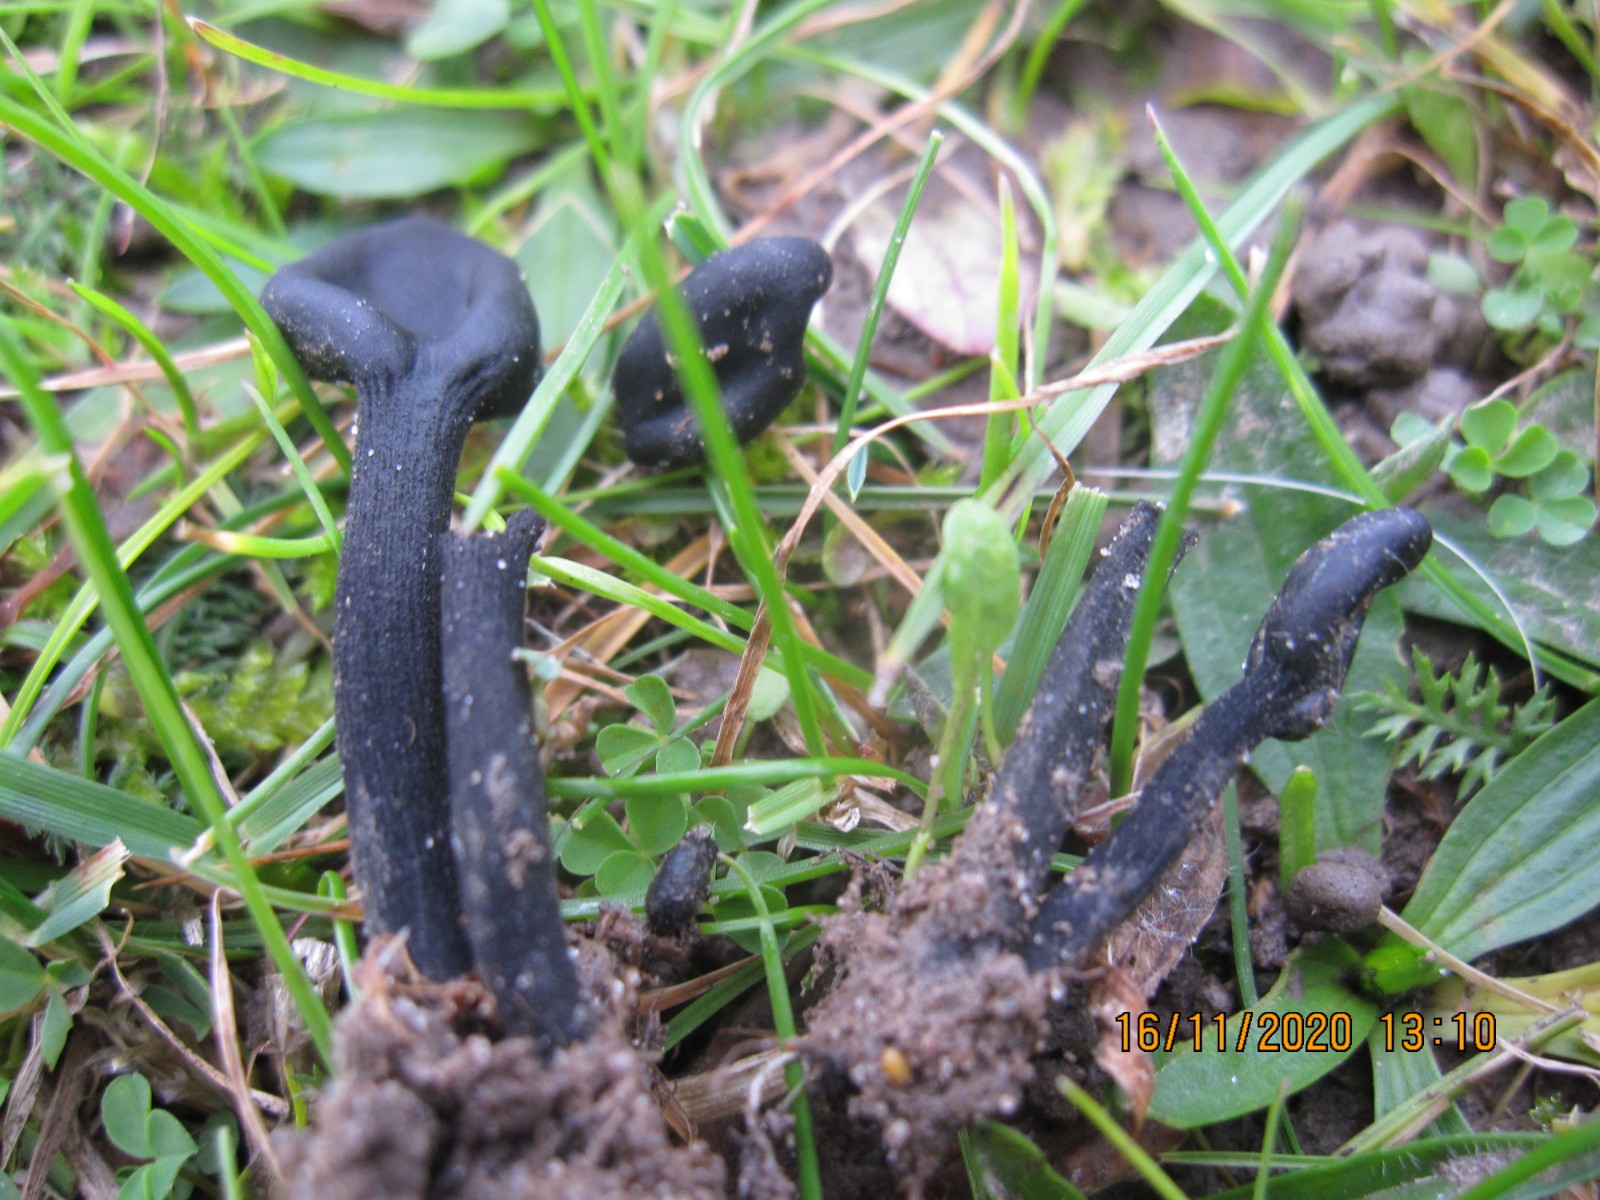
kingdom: Fungi
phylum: Ascomycota
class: Geoglossomycetes
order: Geoglossales
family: Geoglossaceae
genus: Trichoglossum
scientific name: Trichoglossum hirsutum
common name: håret jordtunge
